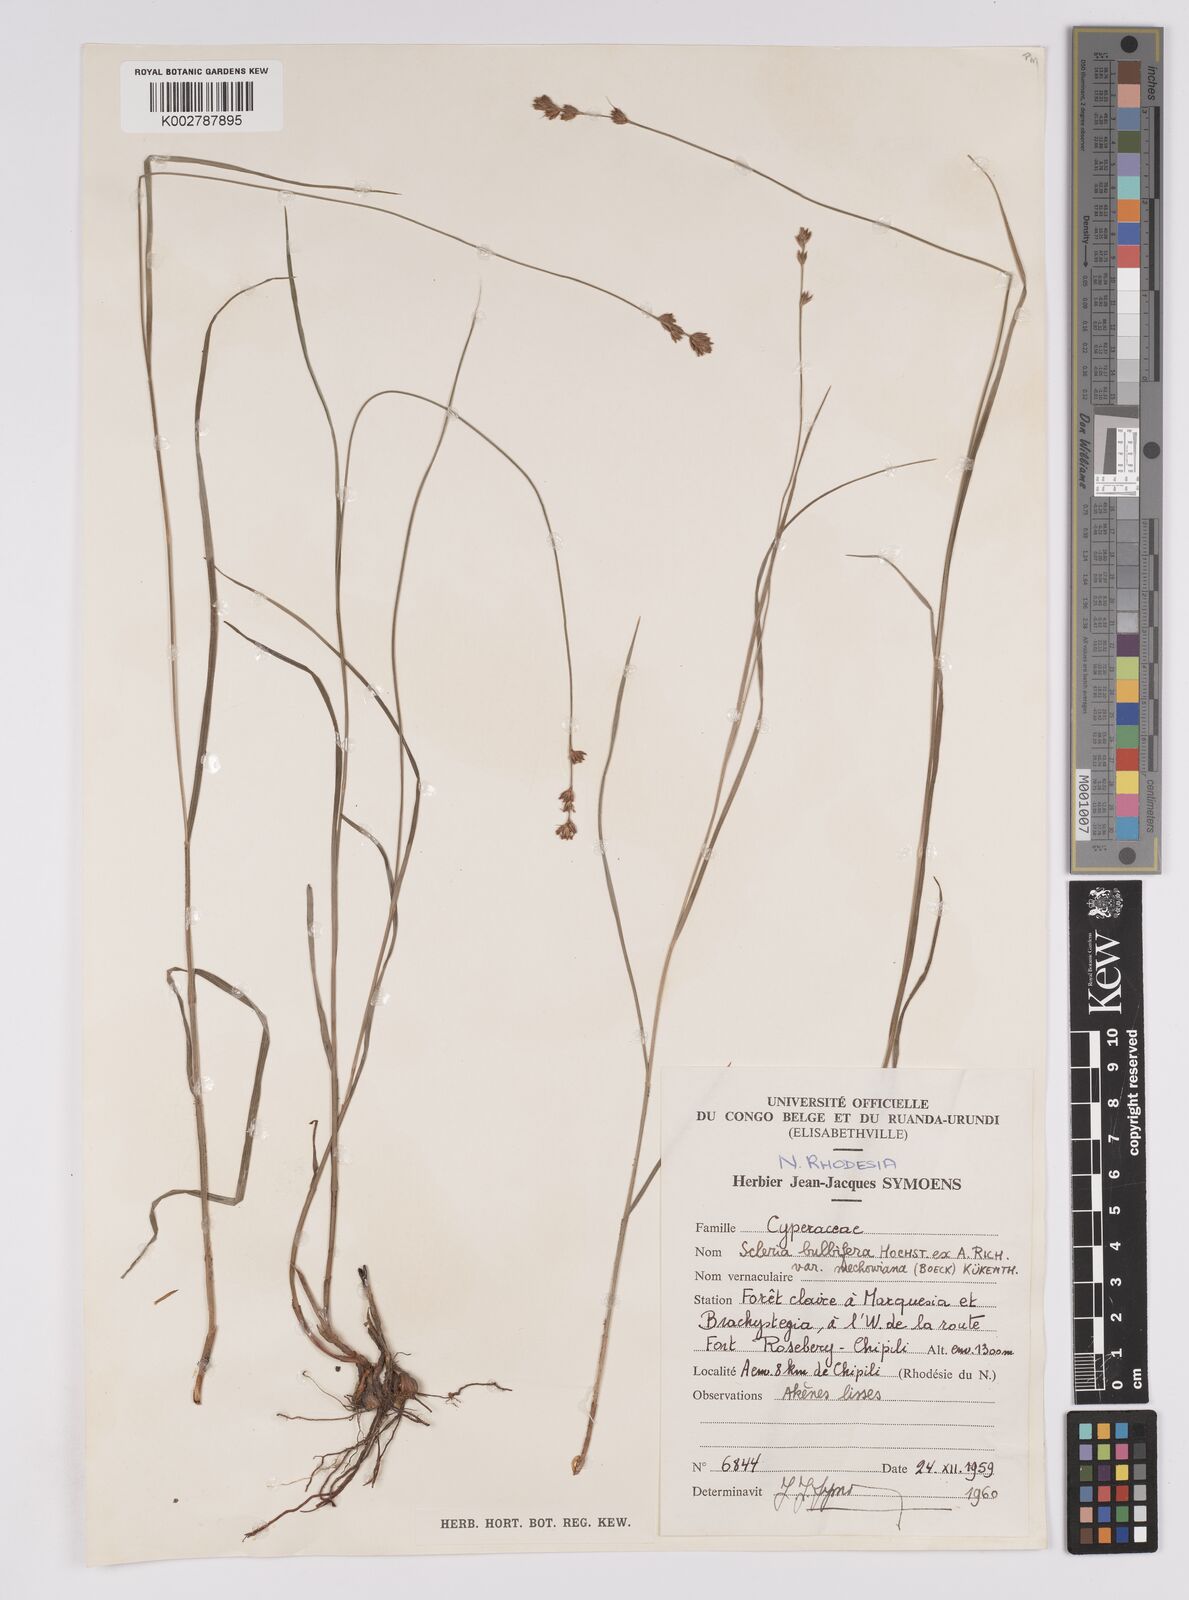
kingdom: Plantae
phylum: Tracheophyta
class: Liliopsida
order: Poales
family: Cyperaceae
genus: Scleria
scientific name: Scleria bulbifera
